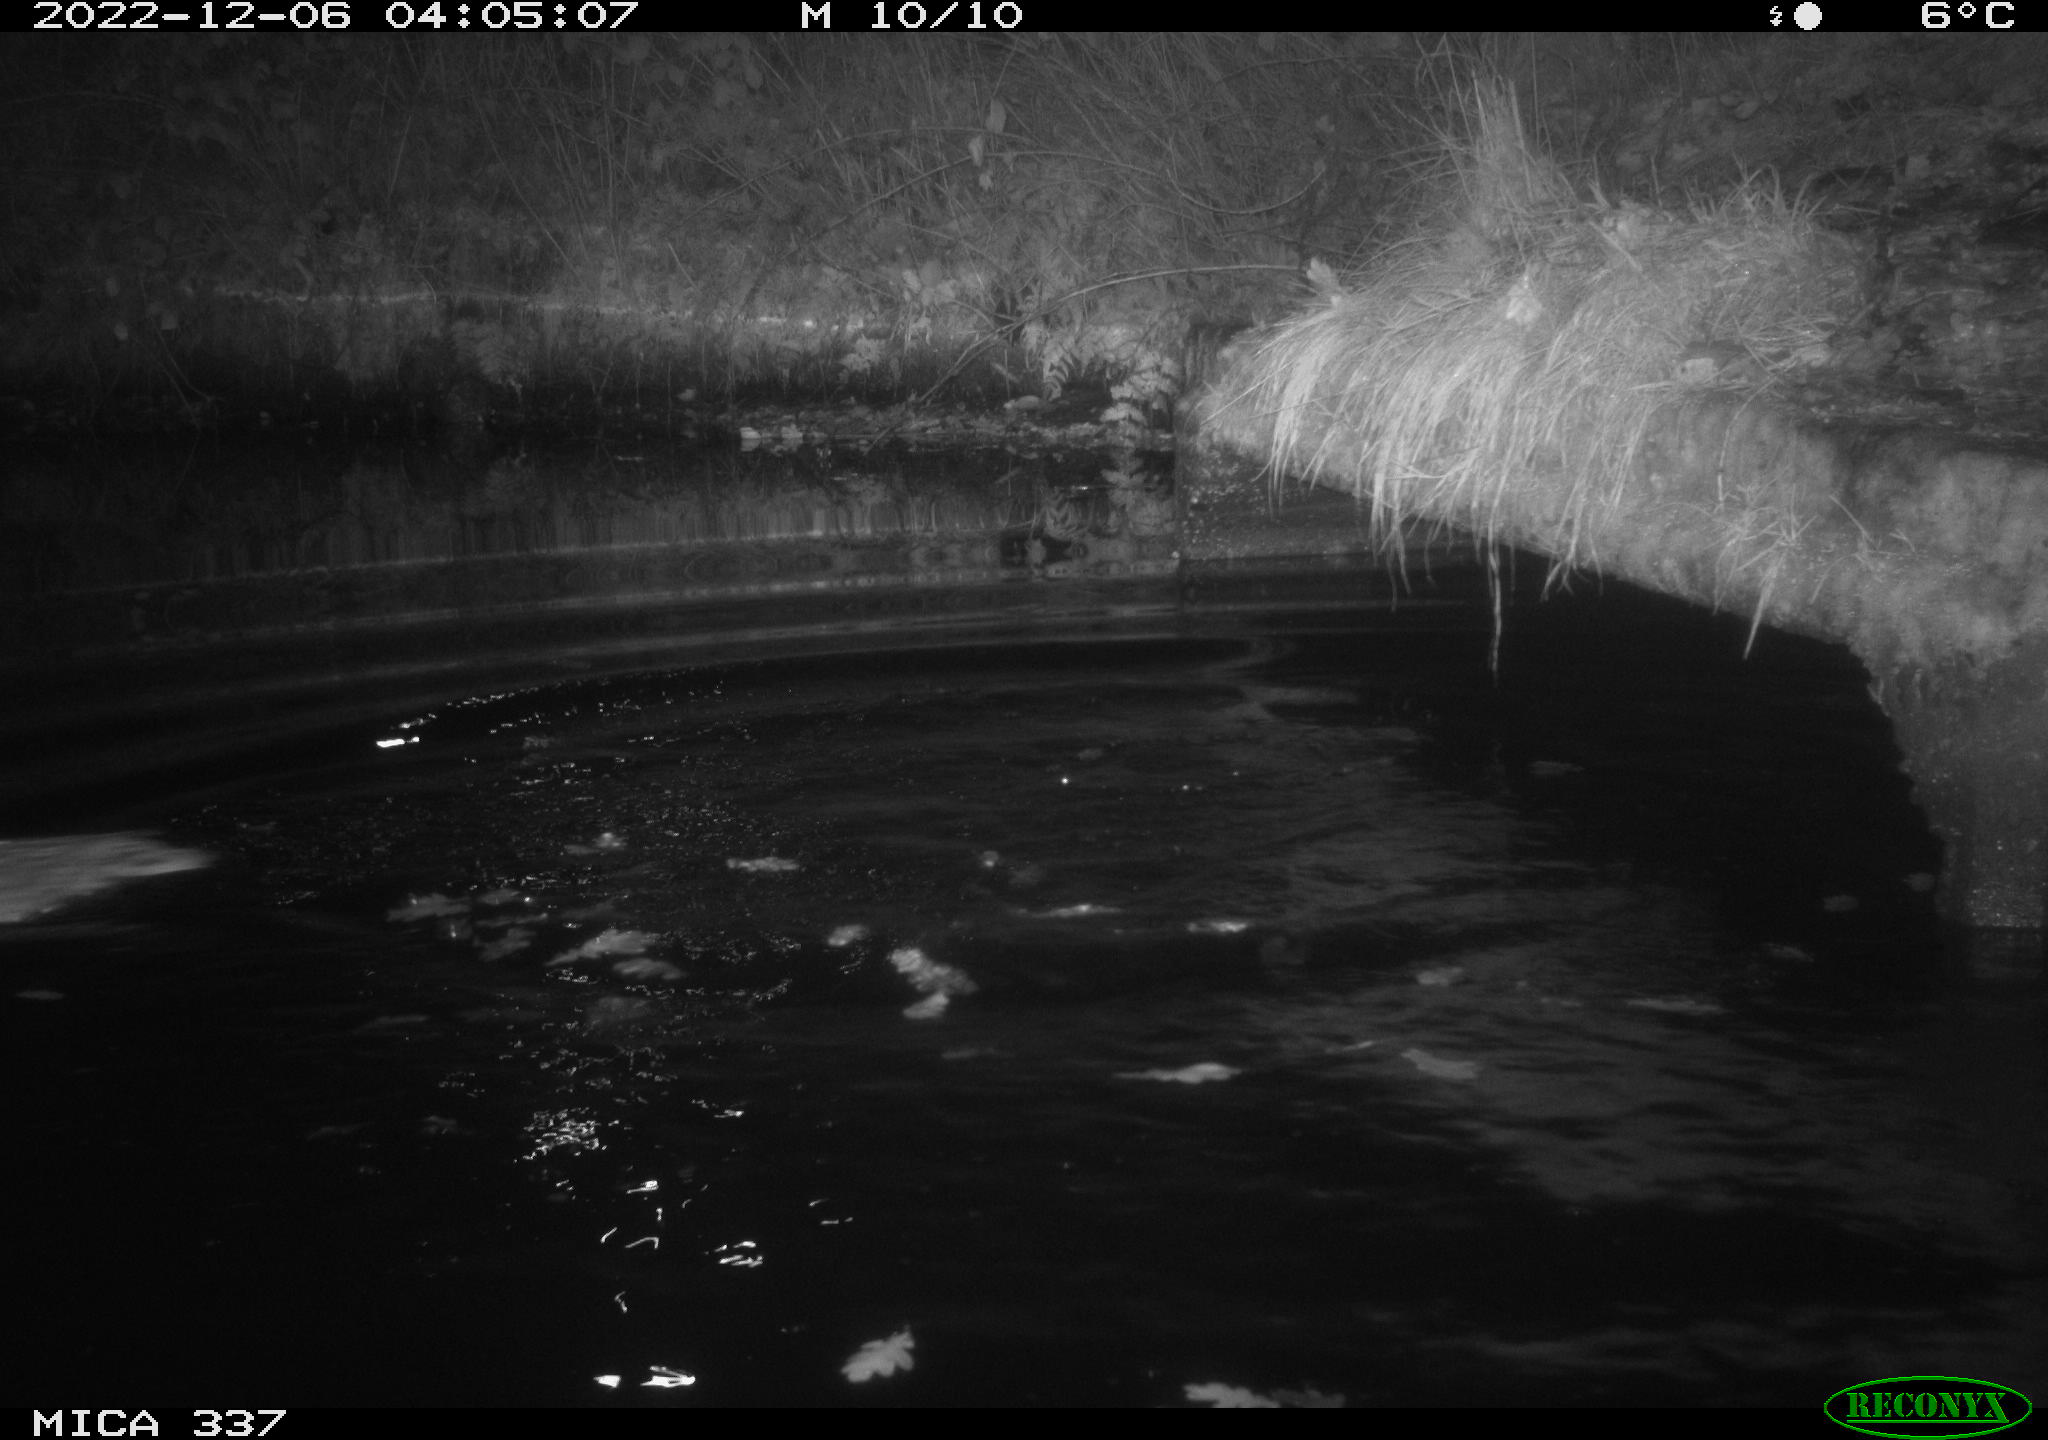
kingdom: Animalia
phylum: Chordata
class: Aves
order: Anseriformes
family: Anatidae
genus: Anas
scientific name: Anas
